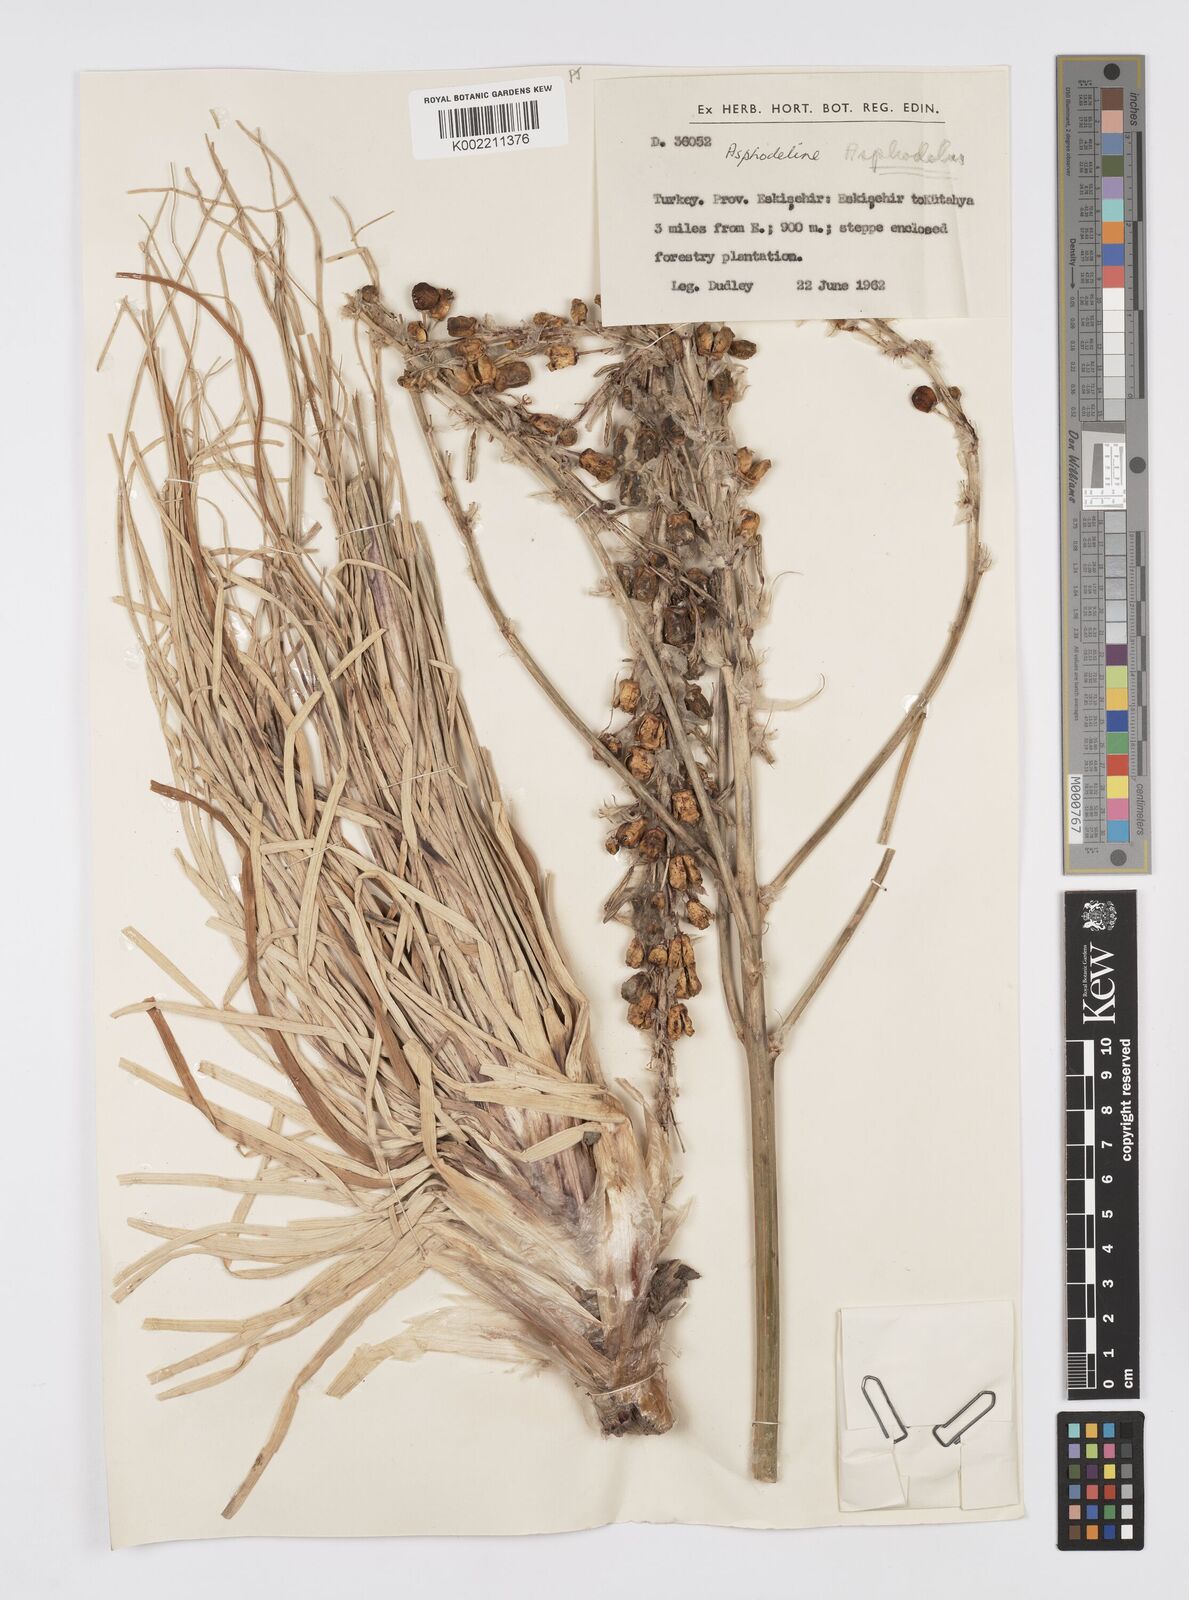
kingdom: Plantae
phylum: Tracheophyta
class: Liliopsida
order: Asparagales
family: Asphodelaceae
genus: Asphodelus
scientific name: Asphodelus
